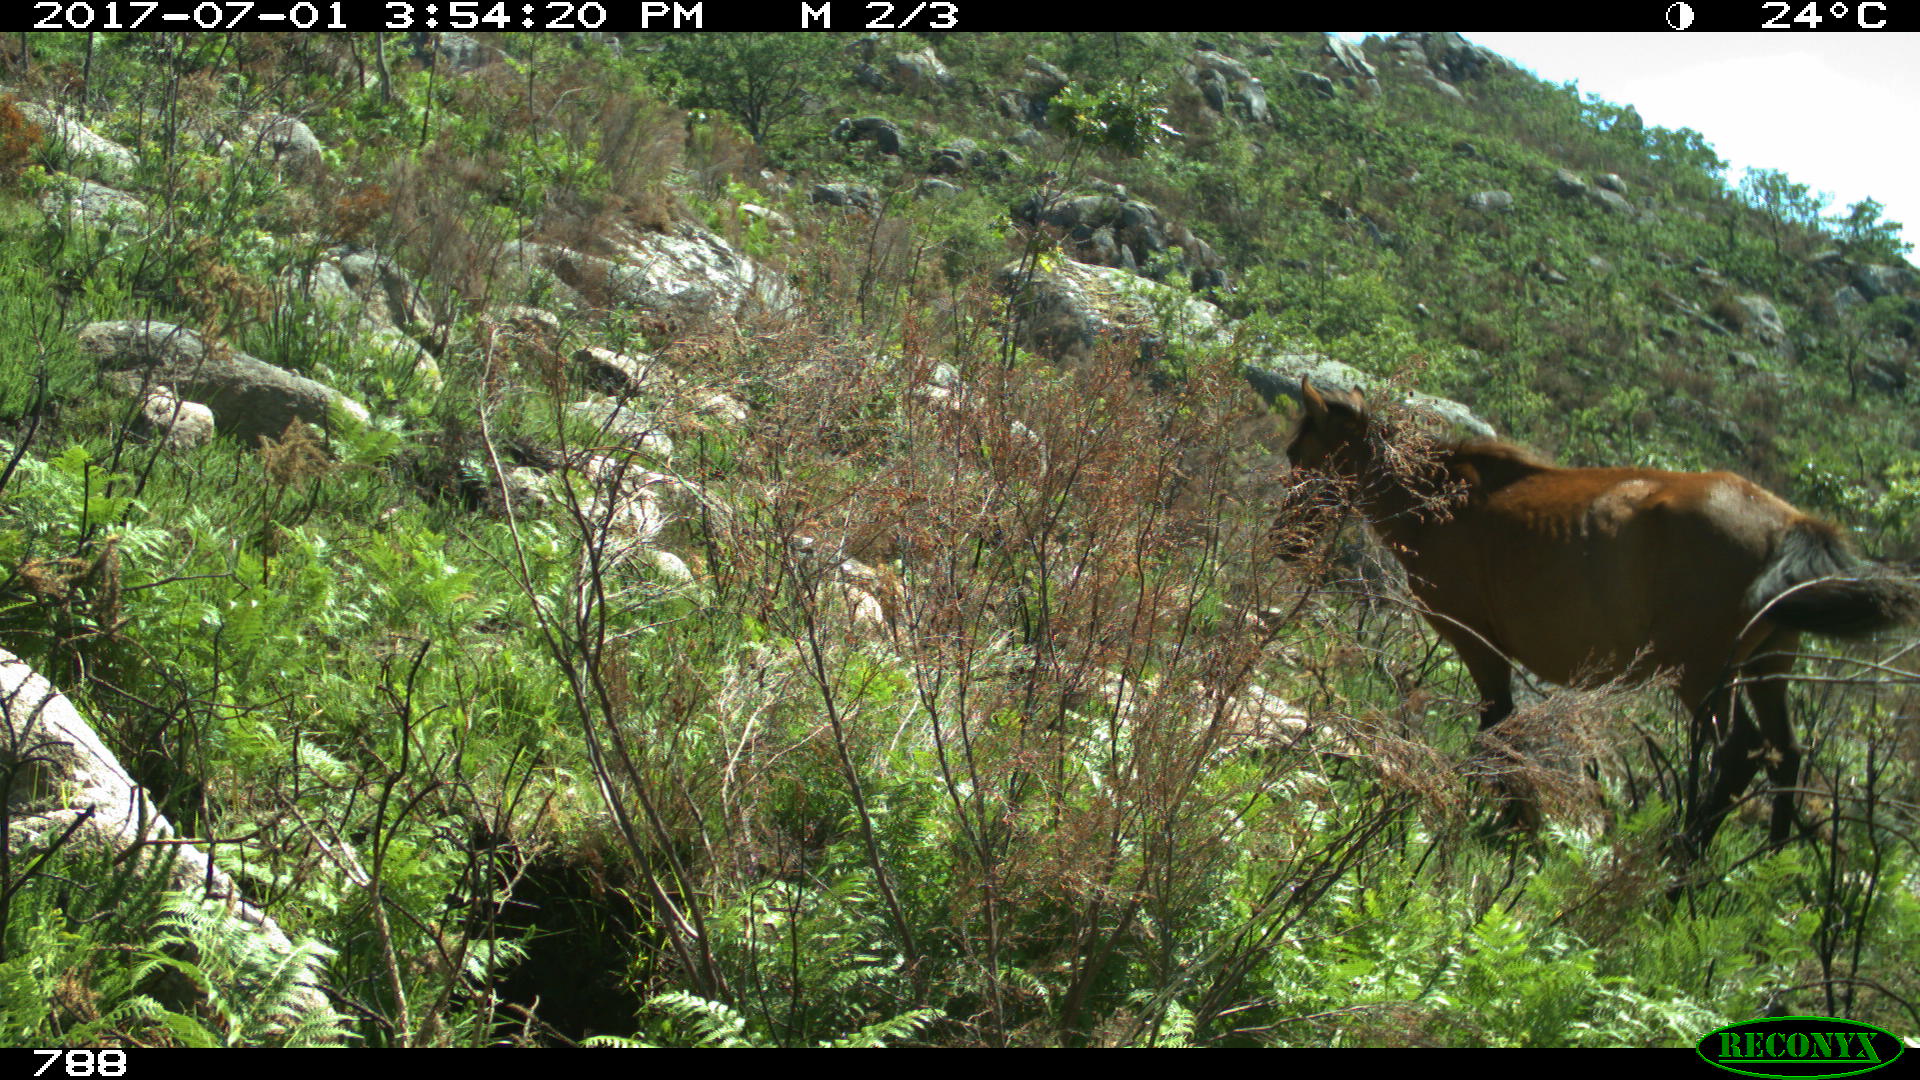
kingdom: Animalia
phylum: Chordata
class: Mammalia
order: Perissodactyla
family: Equidae
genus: Equus
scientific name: Equus caballus
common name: Horse
